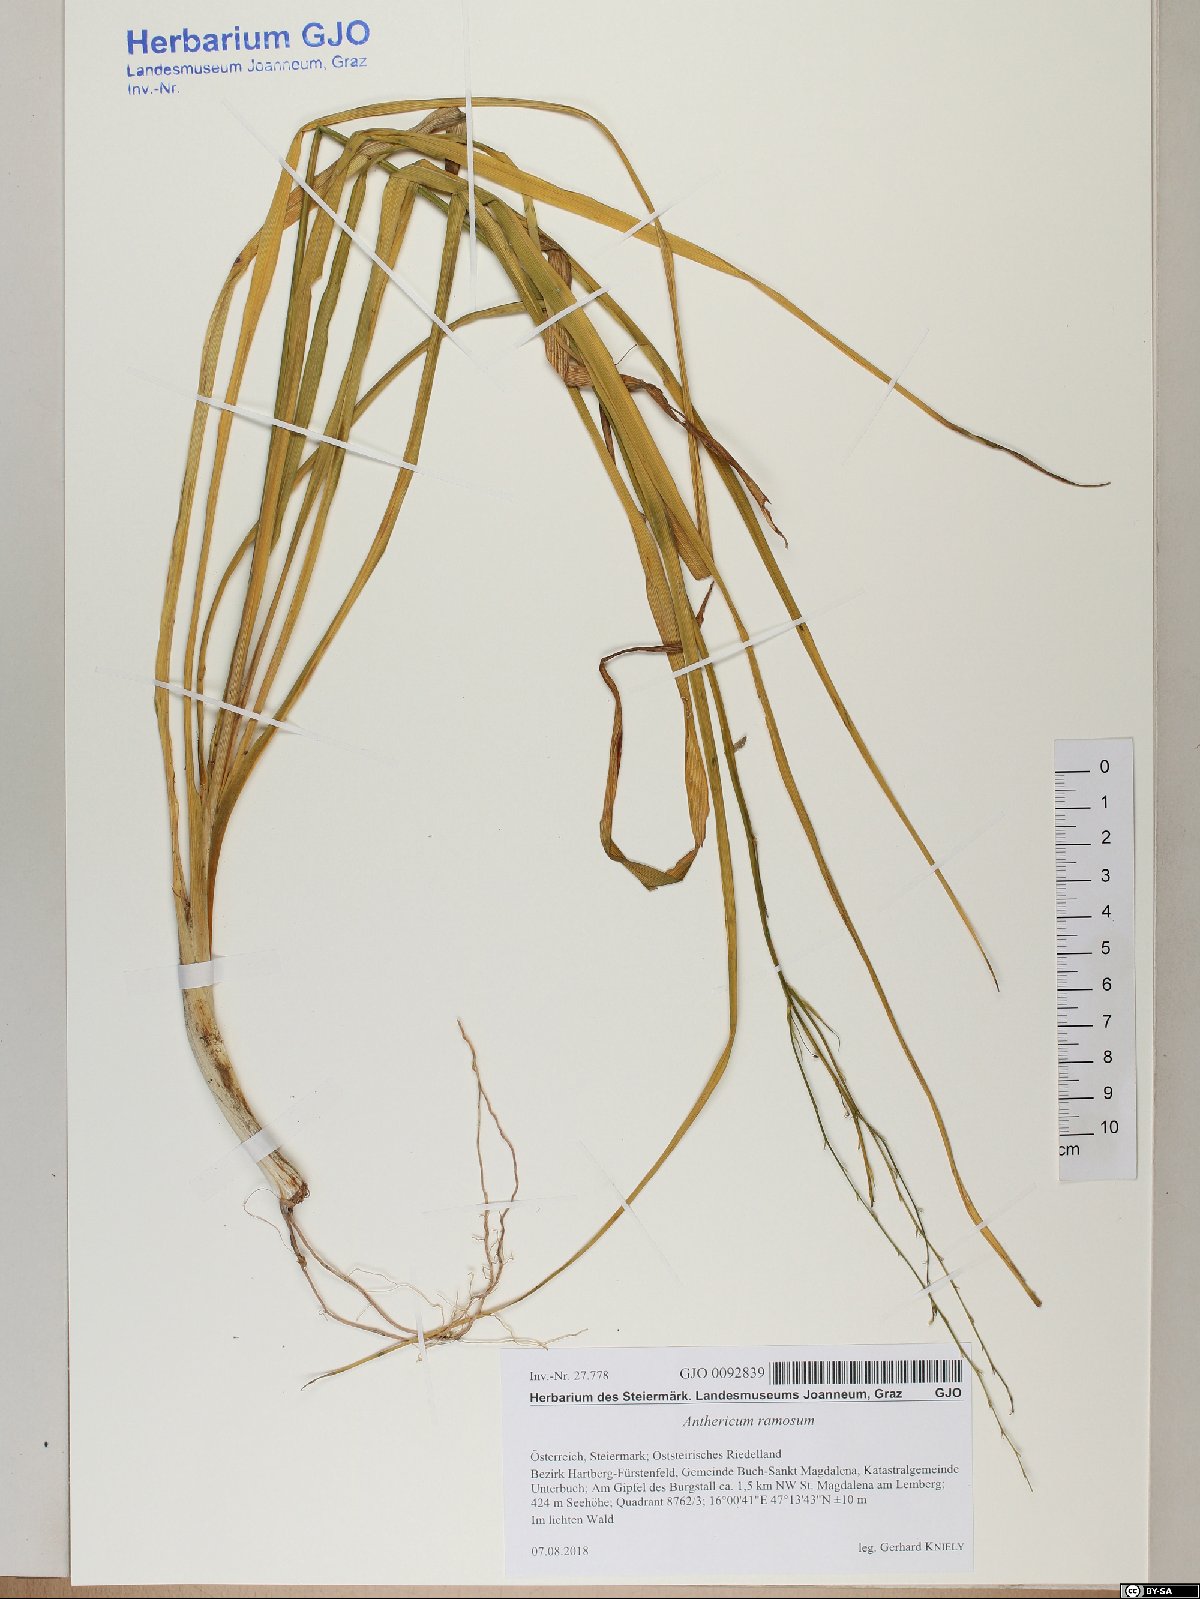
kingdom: Plantae
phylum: Tracheophyta
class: Liliopsida
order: Asparagales
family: Asparagaceae
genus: Anthericum
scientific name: Anthericum ramosum
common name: Branched st. bernard's-lily
